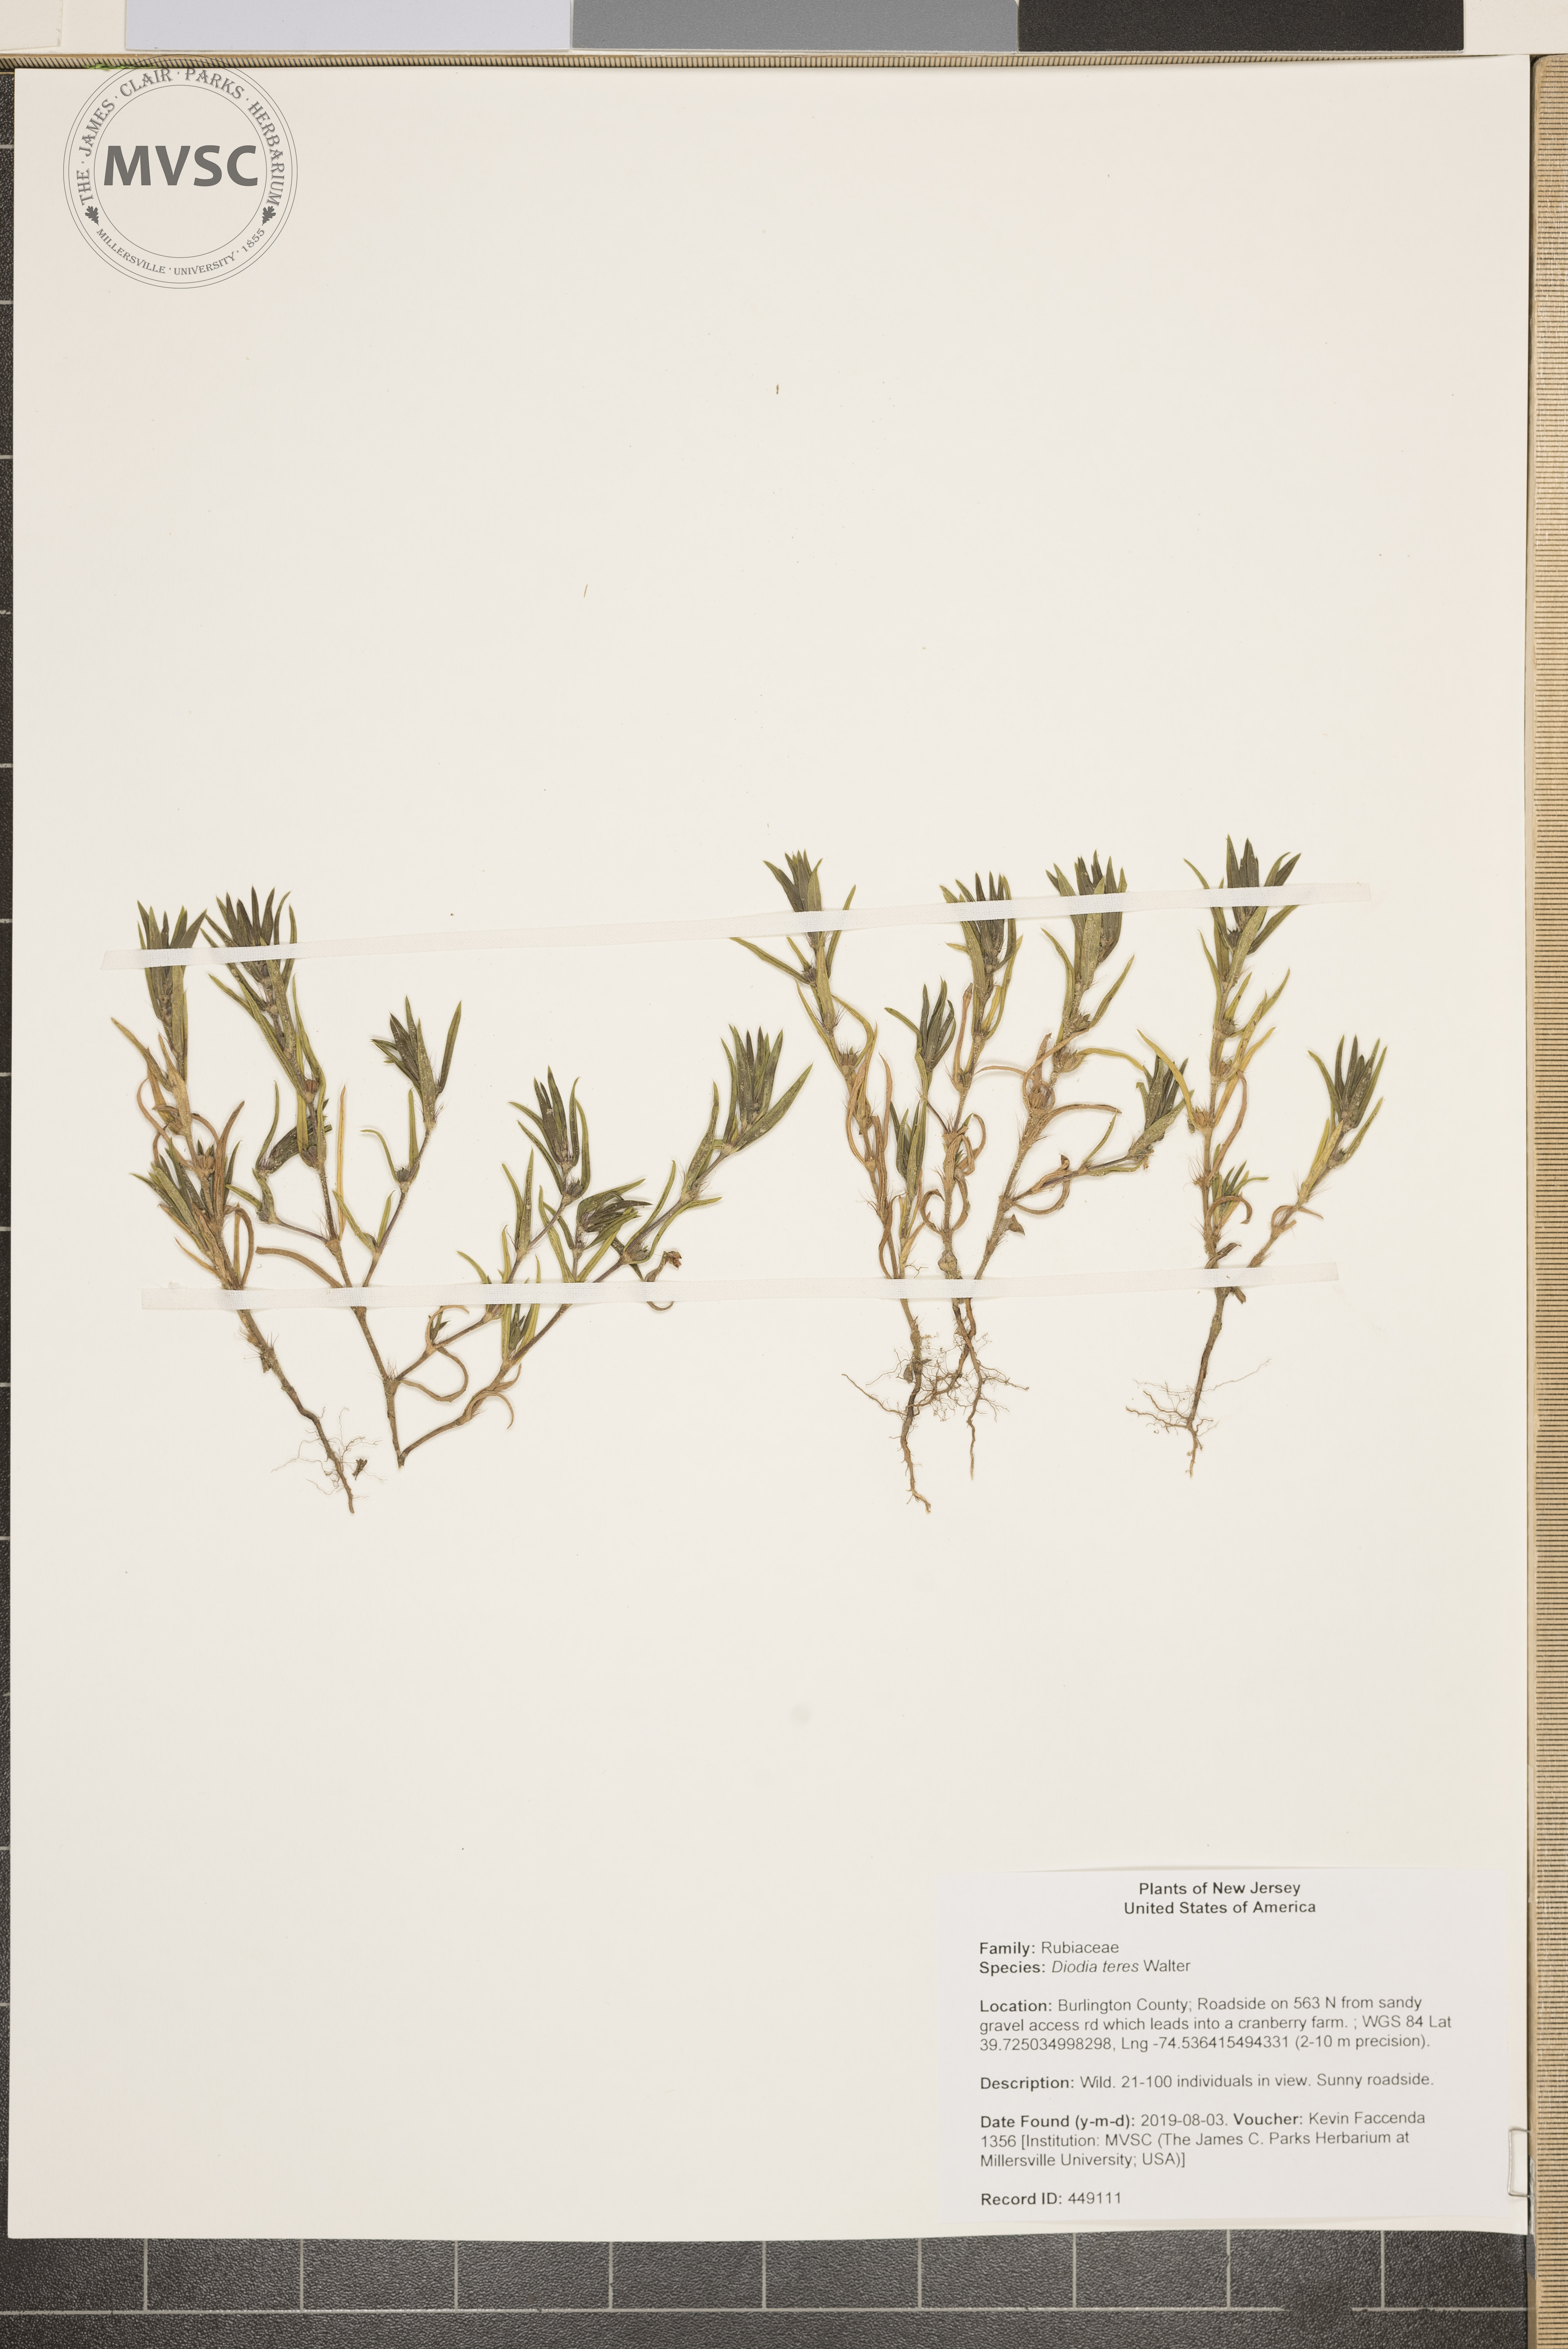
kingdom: Plantae
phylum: Tracheophyta
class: Magnoliopsida
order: Gentianales
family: Rubiaceae
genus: Hexasepalum
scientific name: Hexasepalum teres
